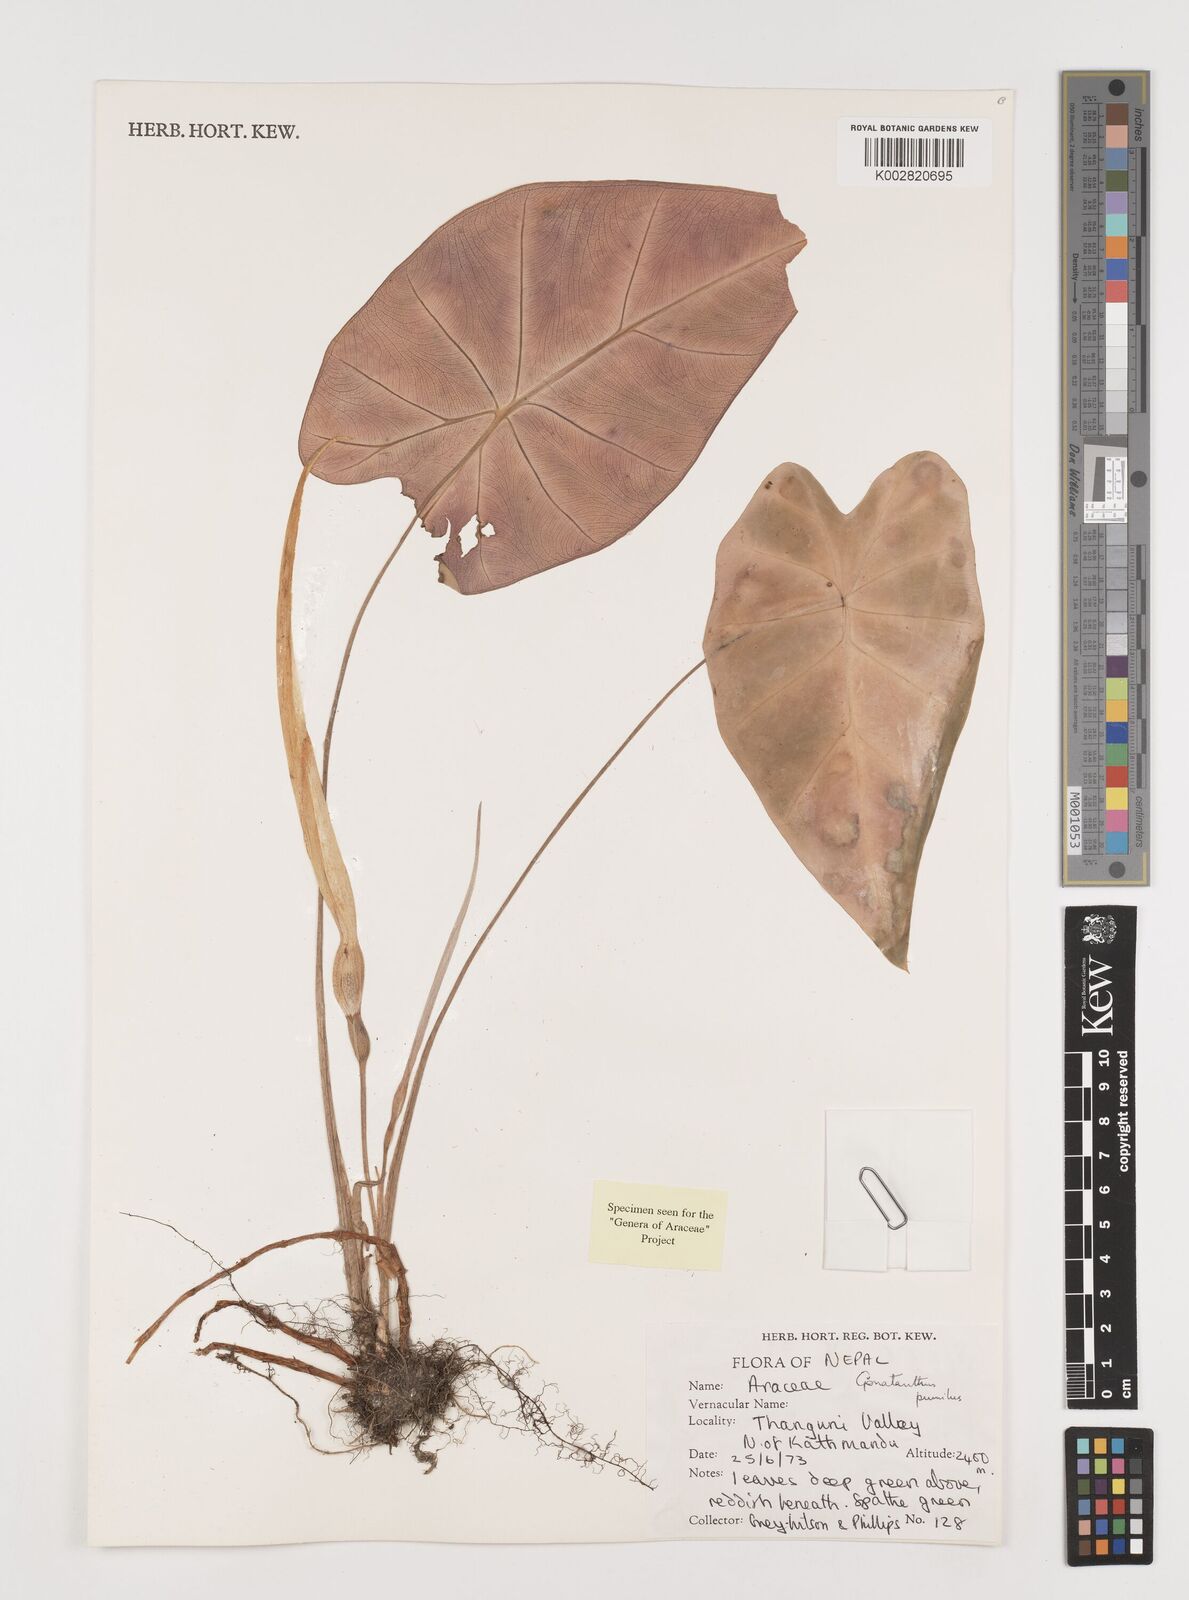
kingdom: Plantae
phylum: Tracheophyta
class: Liliopsida
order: Alismatales
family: Araceae
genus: Remusatia
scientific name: Remusatia pumila
